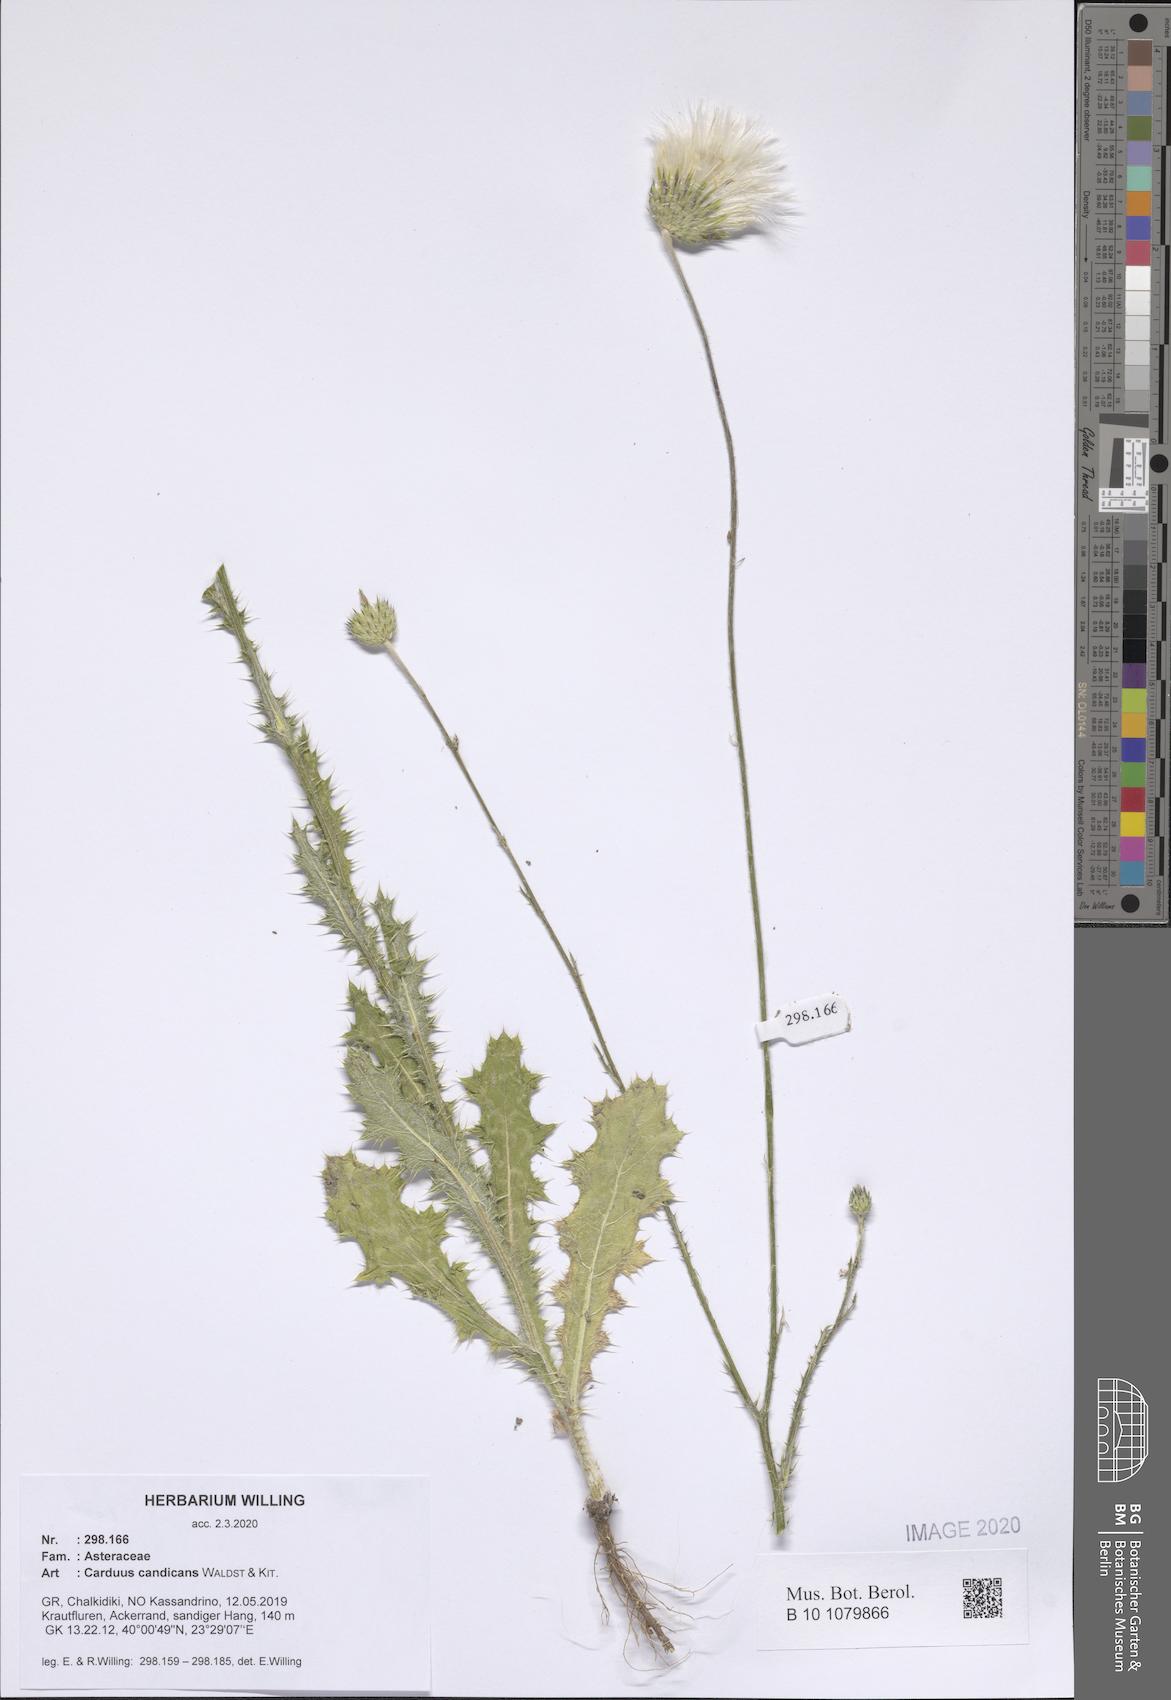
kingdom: Plantae
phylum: Tracheophyta
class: Magnoliopsida
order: Asterales
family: Asteraceae
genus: Carduus
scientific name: Carduus candicans
